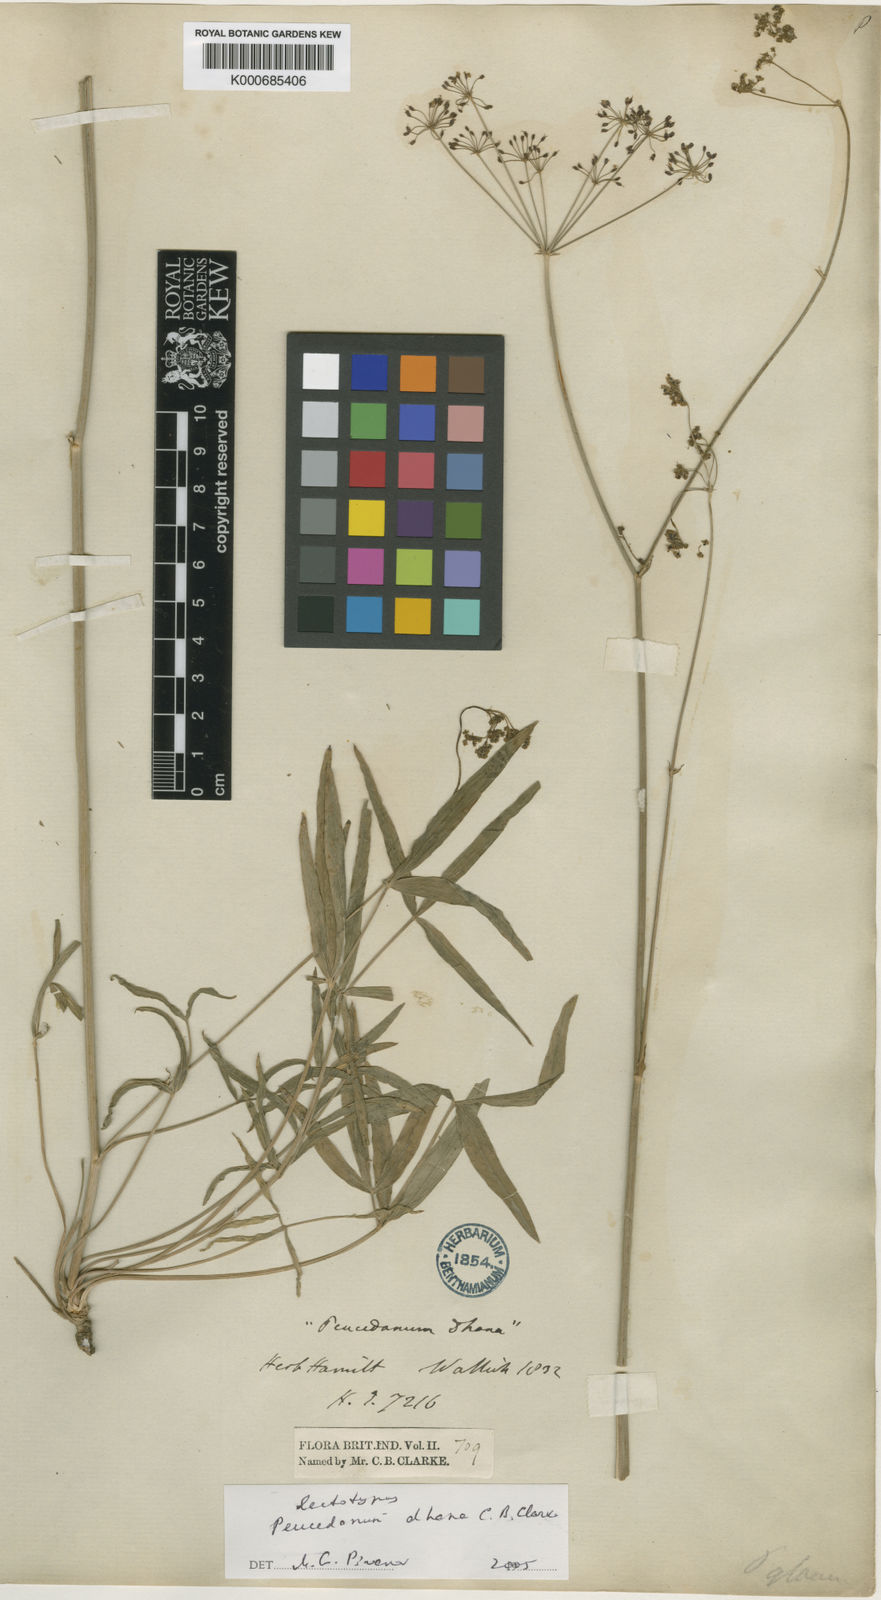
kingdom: Plantae
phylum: Tracheophyta
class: Magnoliopsida
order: Apiales
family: Apiaceae
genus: Peucedanum
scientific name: Peucedanum dhana
